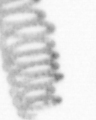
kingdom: Chromista
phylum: Ochrophyta
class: Bacillariophyceae
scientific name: Bacillariophyceae
